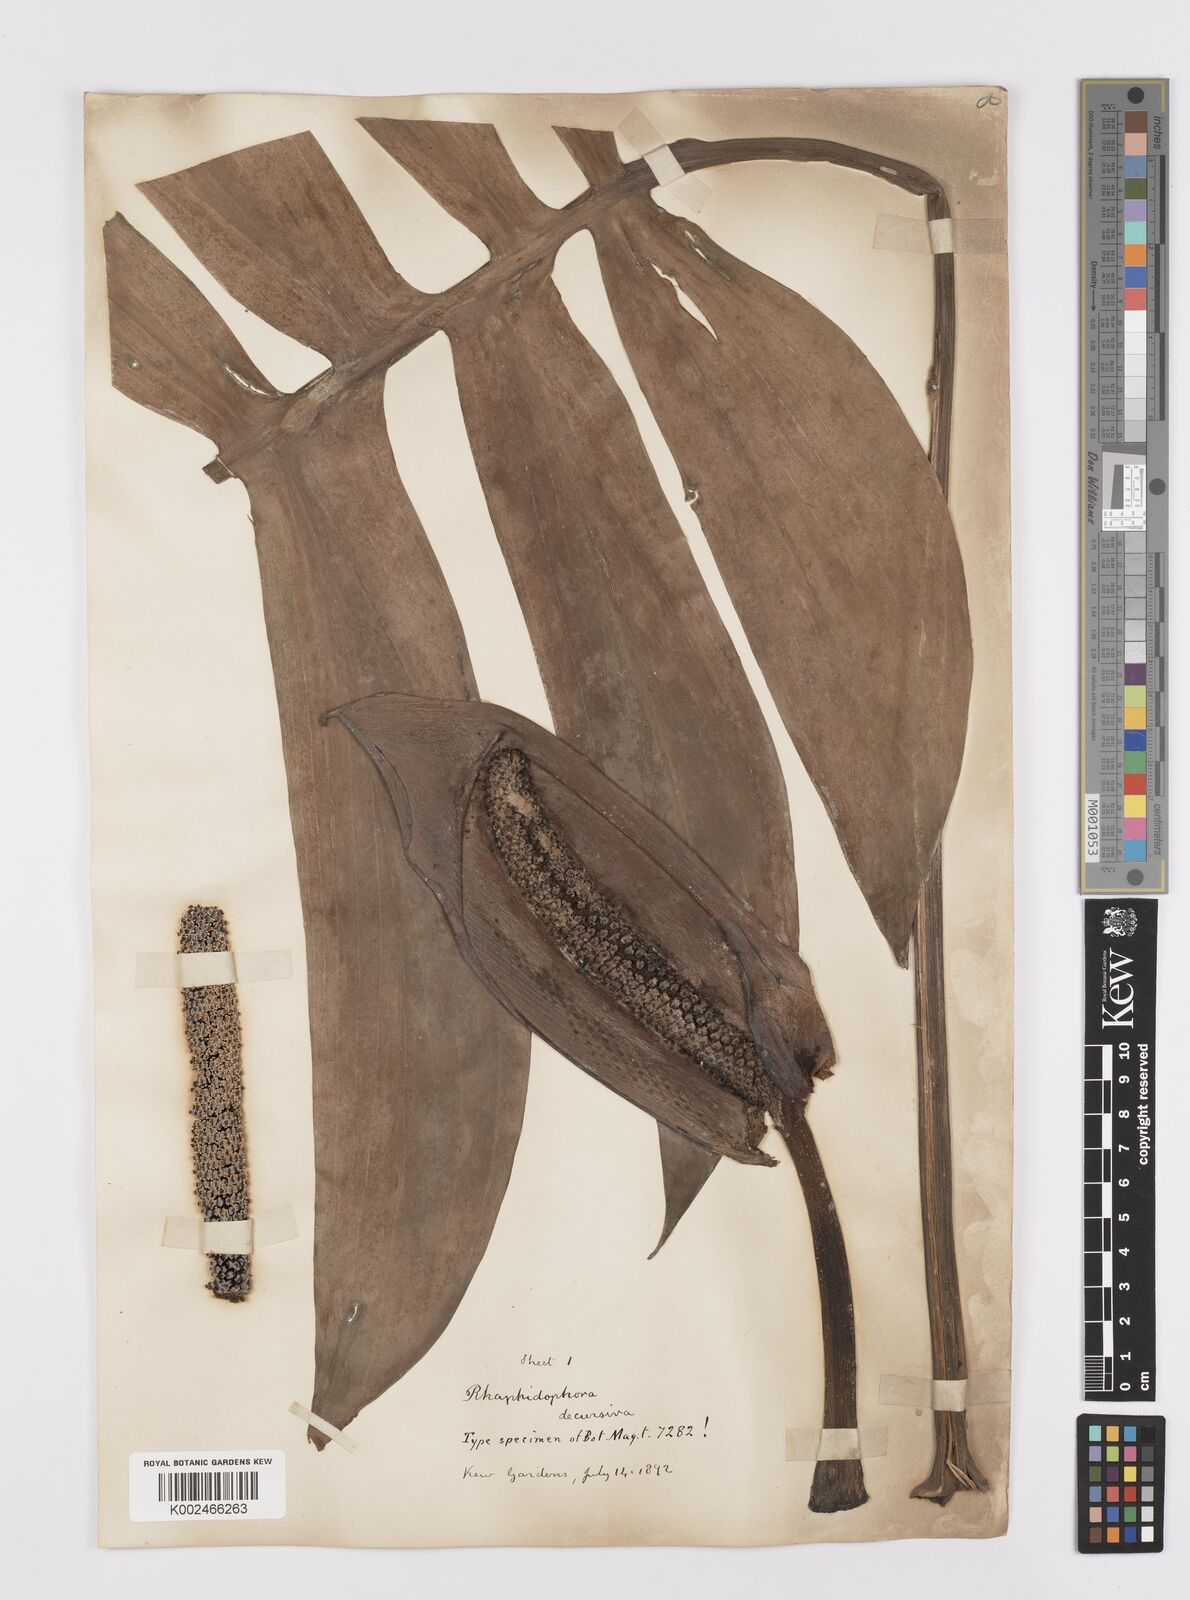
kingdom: Plantae
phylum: Tracheophyta
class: Liliopsida
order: Alismatales
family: Araceae
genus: Rhaphidophora
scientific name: Rhaphidophora decursiva
